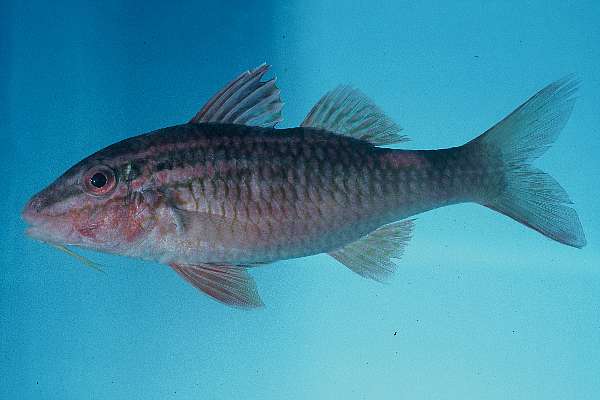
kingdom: Animalia
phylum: Chordata
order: Perciformes
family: Mullidae
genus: Parupeneus
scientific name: Parupeneus
